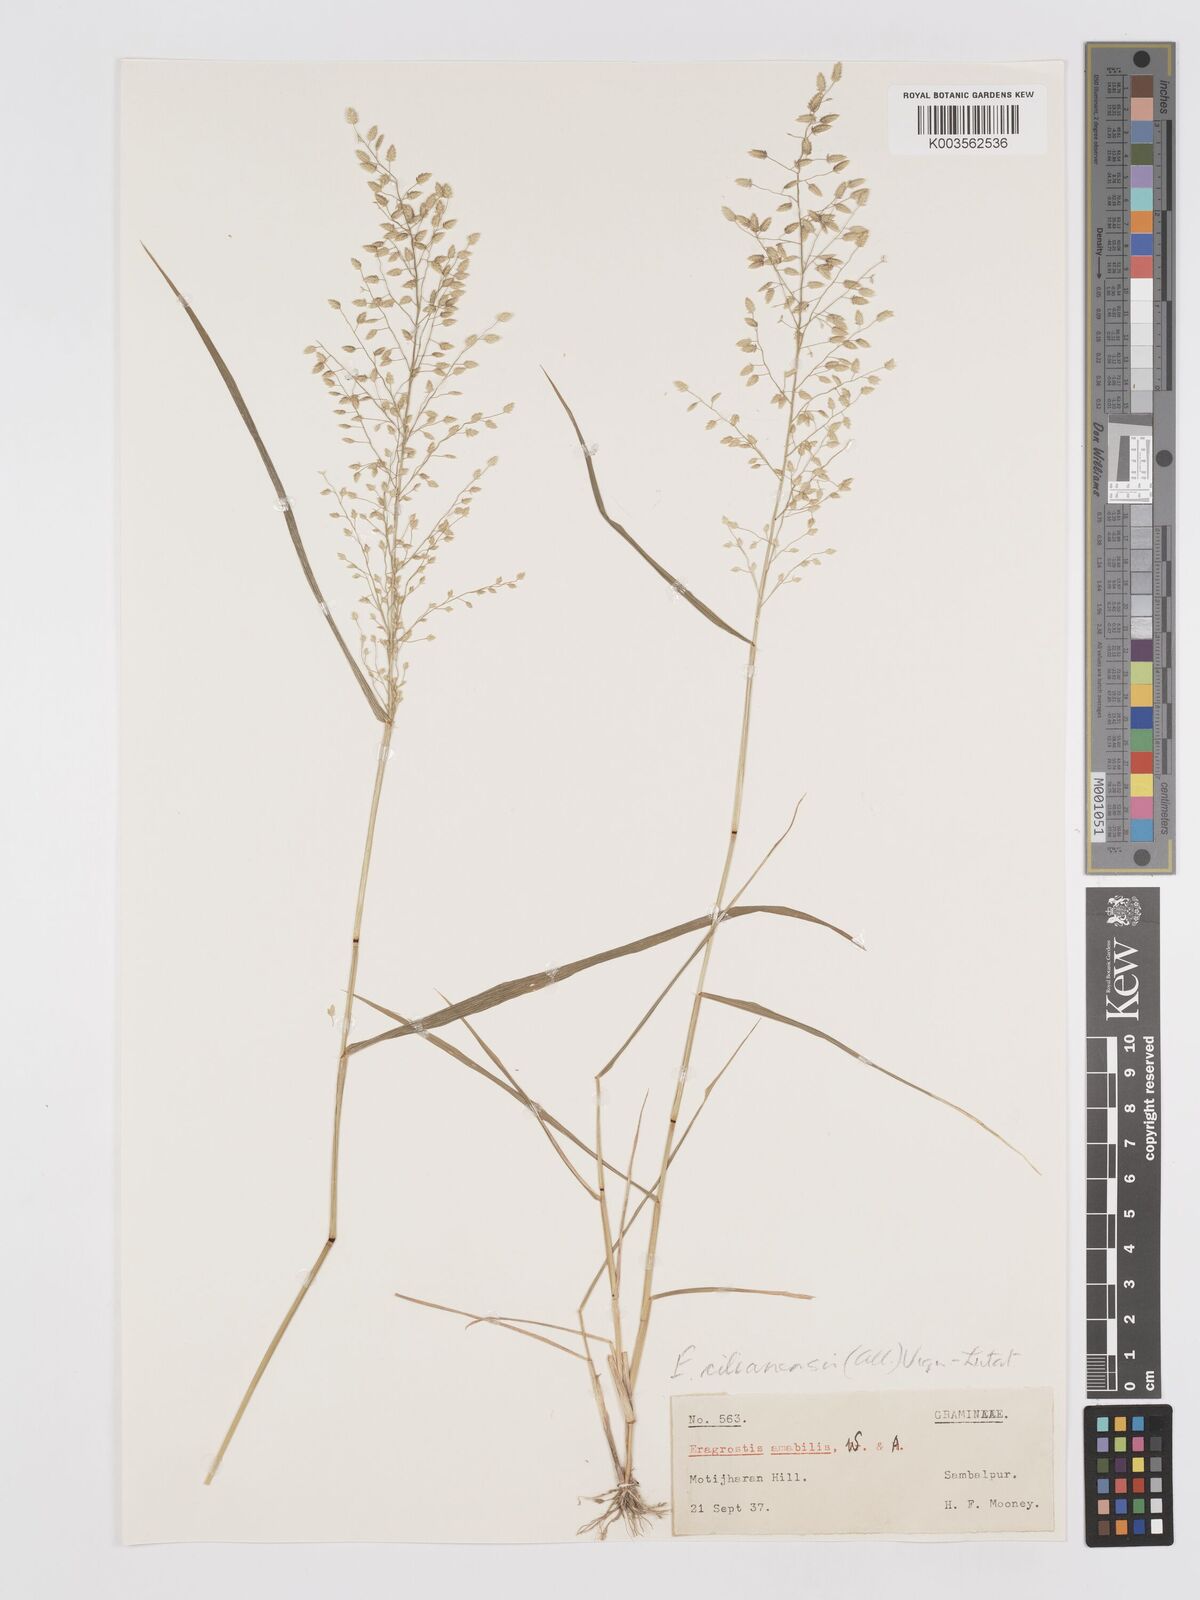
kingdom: Plantae
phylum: Tracheophyta
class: Liliopsida
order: Poales
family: Poaceae
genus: Eragrostis
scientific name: Eragrostis tenella
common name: Japanese lovegrass
